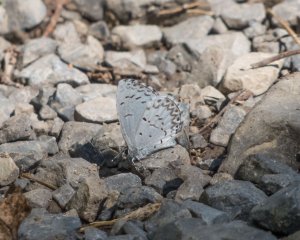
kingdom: Animalia
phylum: Arthropoda
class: Insecta
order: Lepidoptera
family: Lycaenidae
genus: Cyaniris
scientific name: Cyaniris neglecta
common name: Summer Azure
